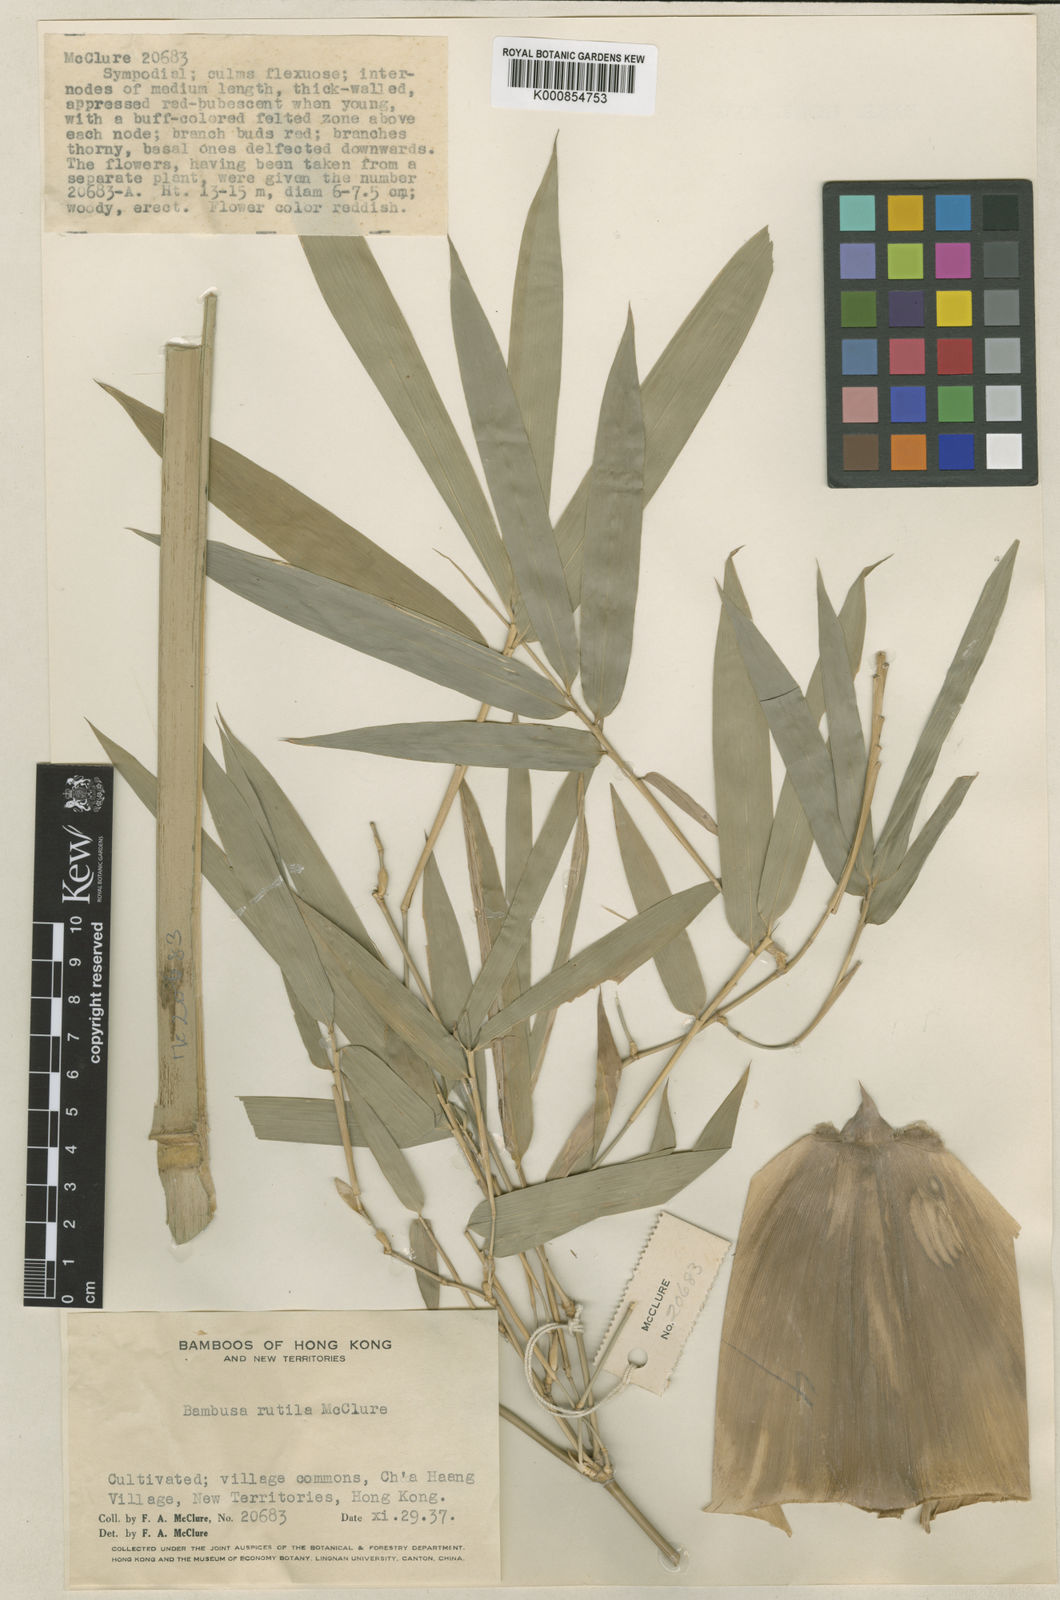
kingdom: Plantae
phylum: Tracheophyta
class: Liliopsida
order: Poales
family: Poaceae
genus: Bambusa
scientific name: Bambusa rutila
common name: Muk bamboo
